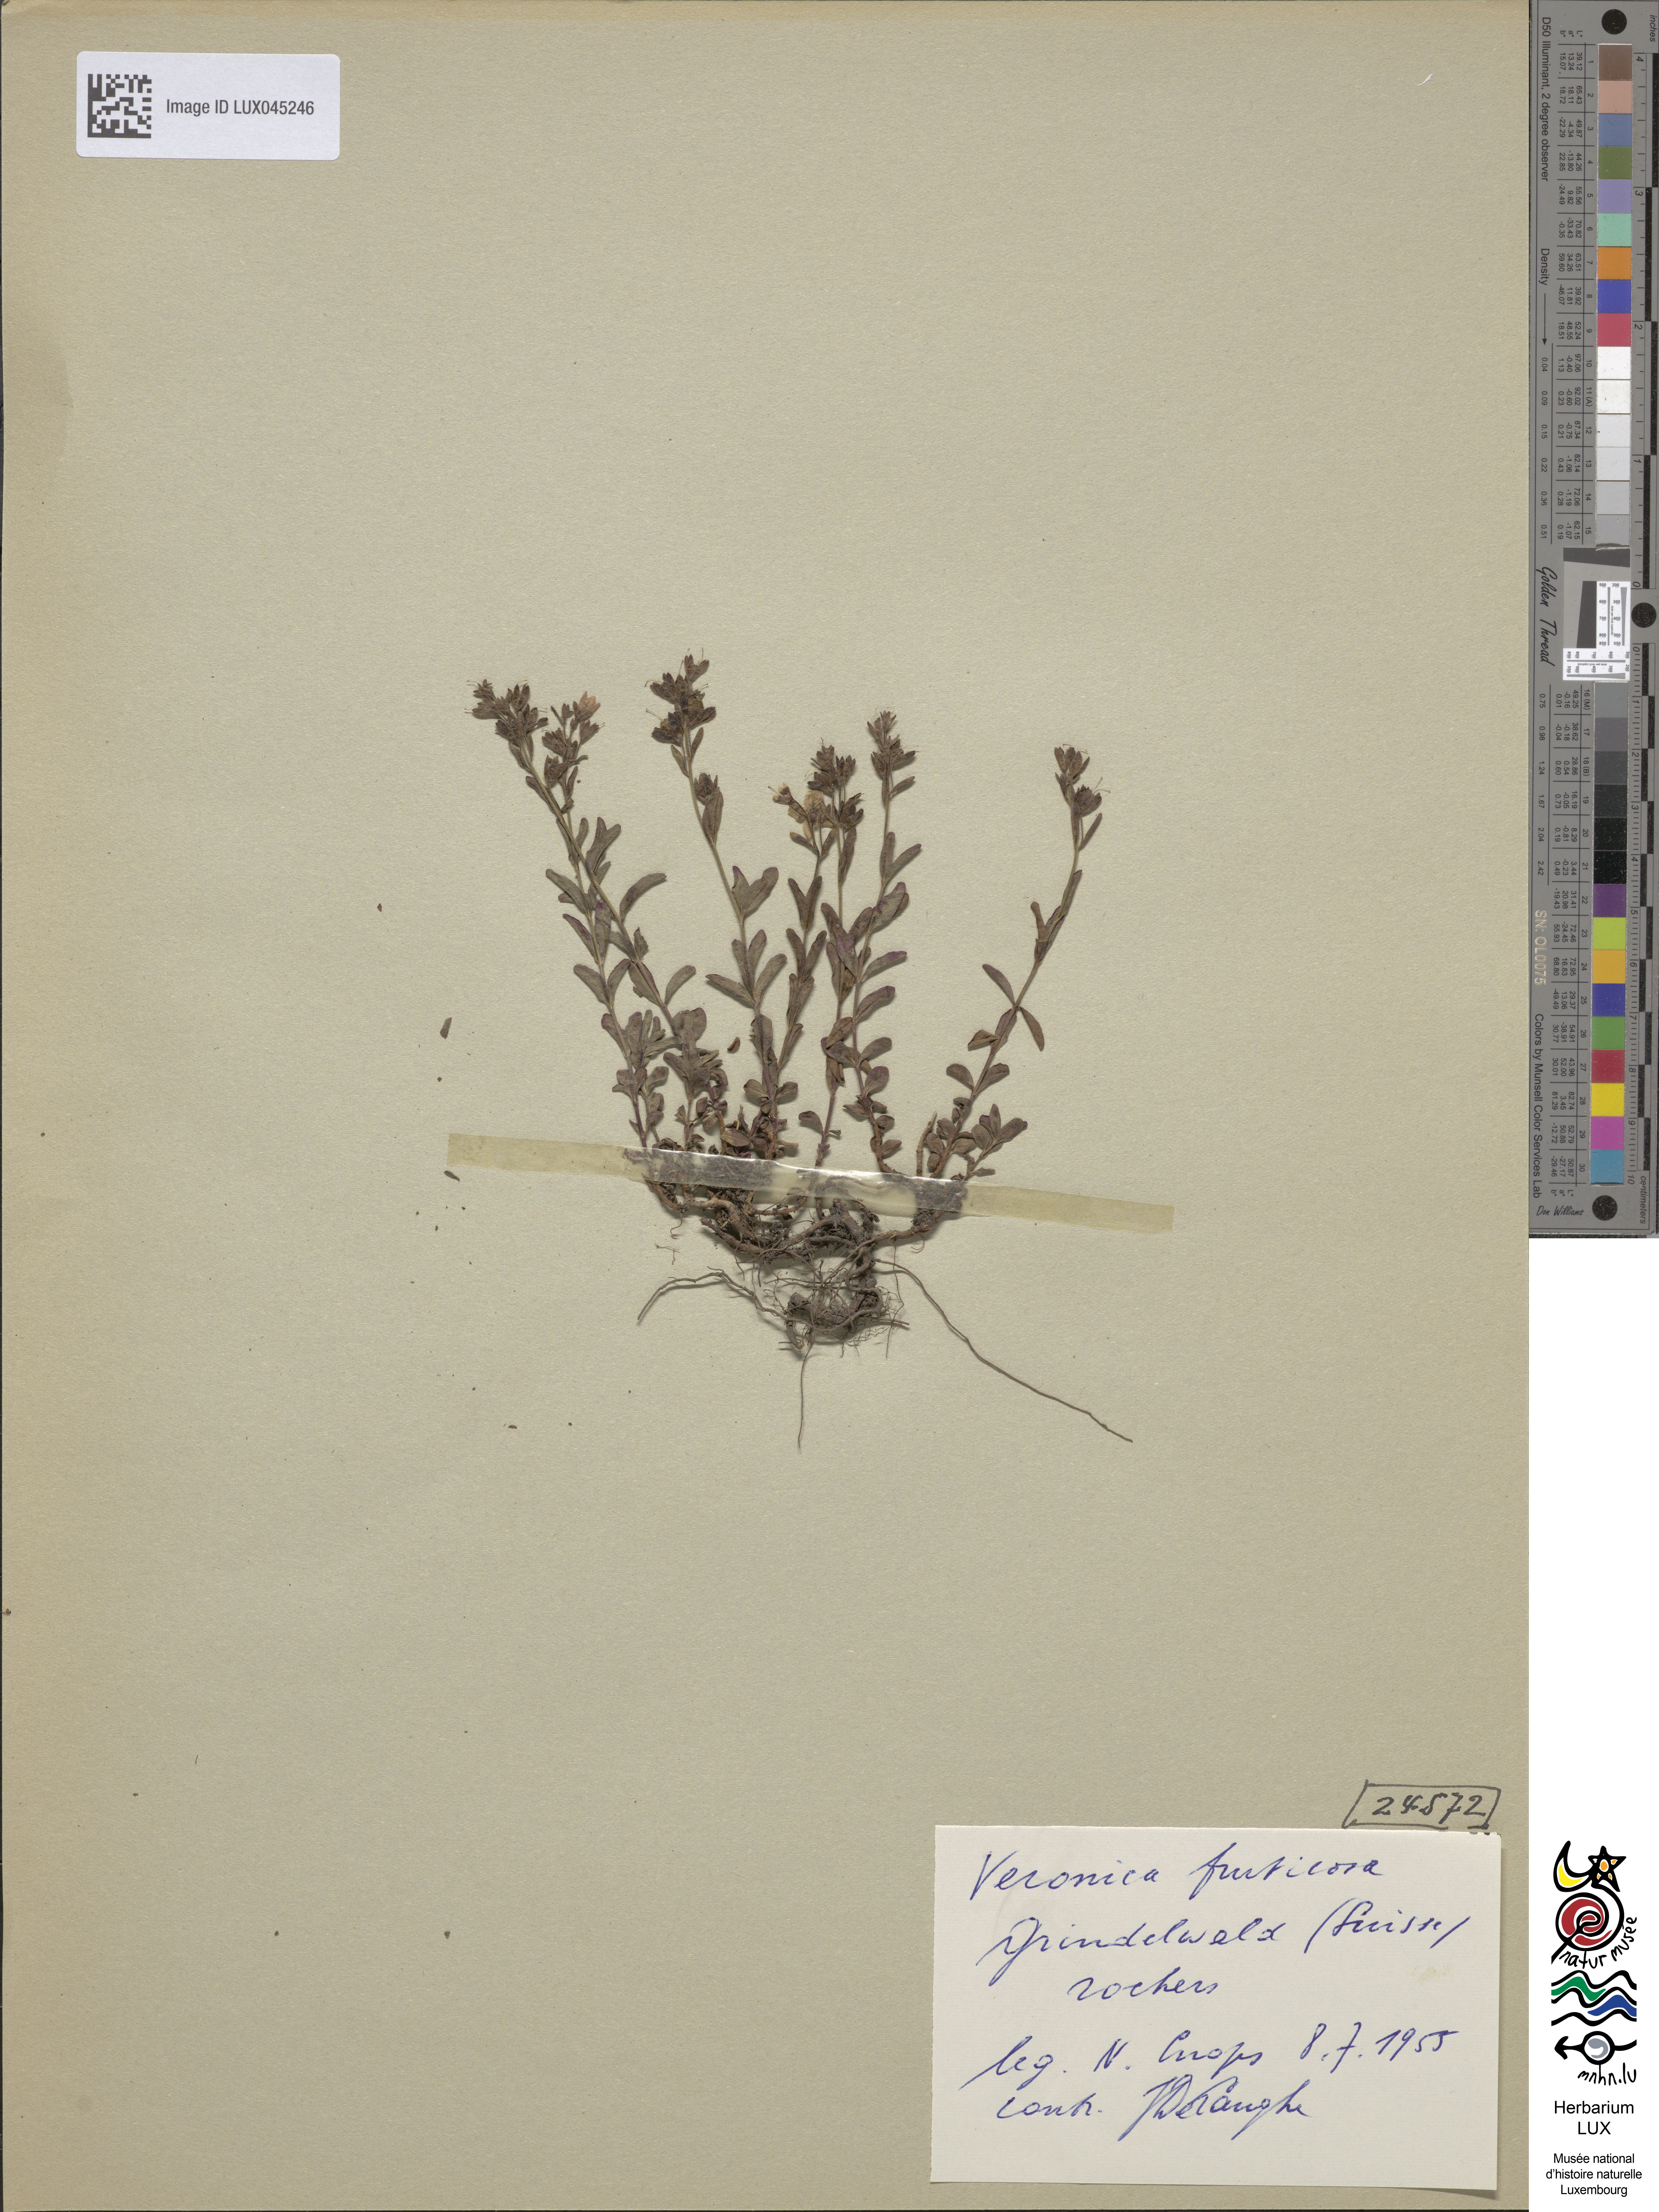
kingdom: Plantae
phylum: Tracheophyta
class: Magnoliopsida
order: Lamiales
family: Plantaginaceae
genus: Veronica
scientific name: Veronica fruticans
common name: Rock speedwell
